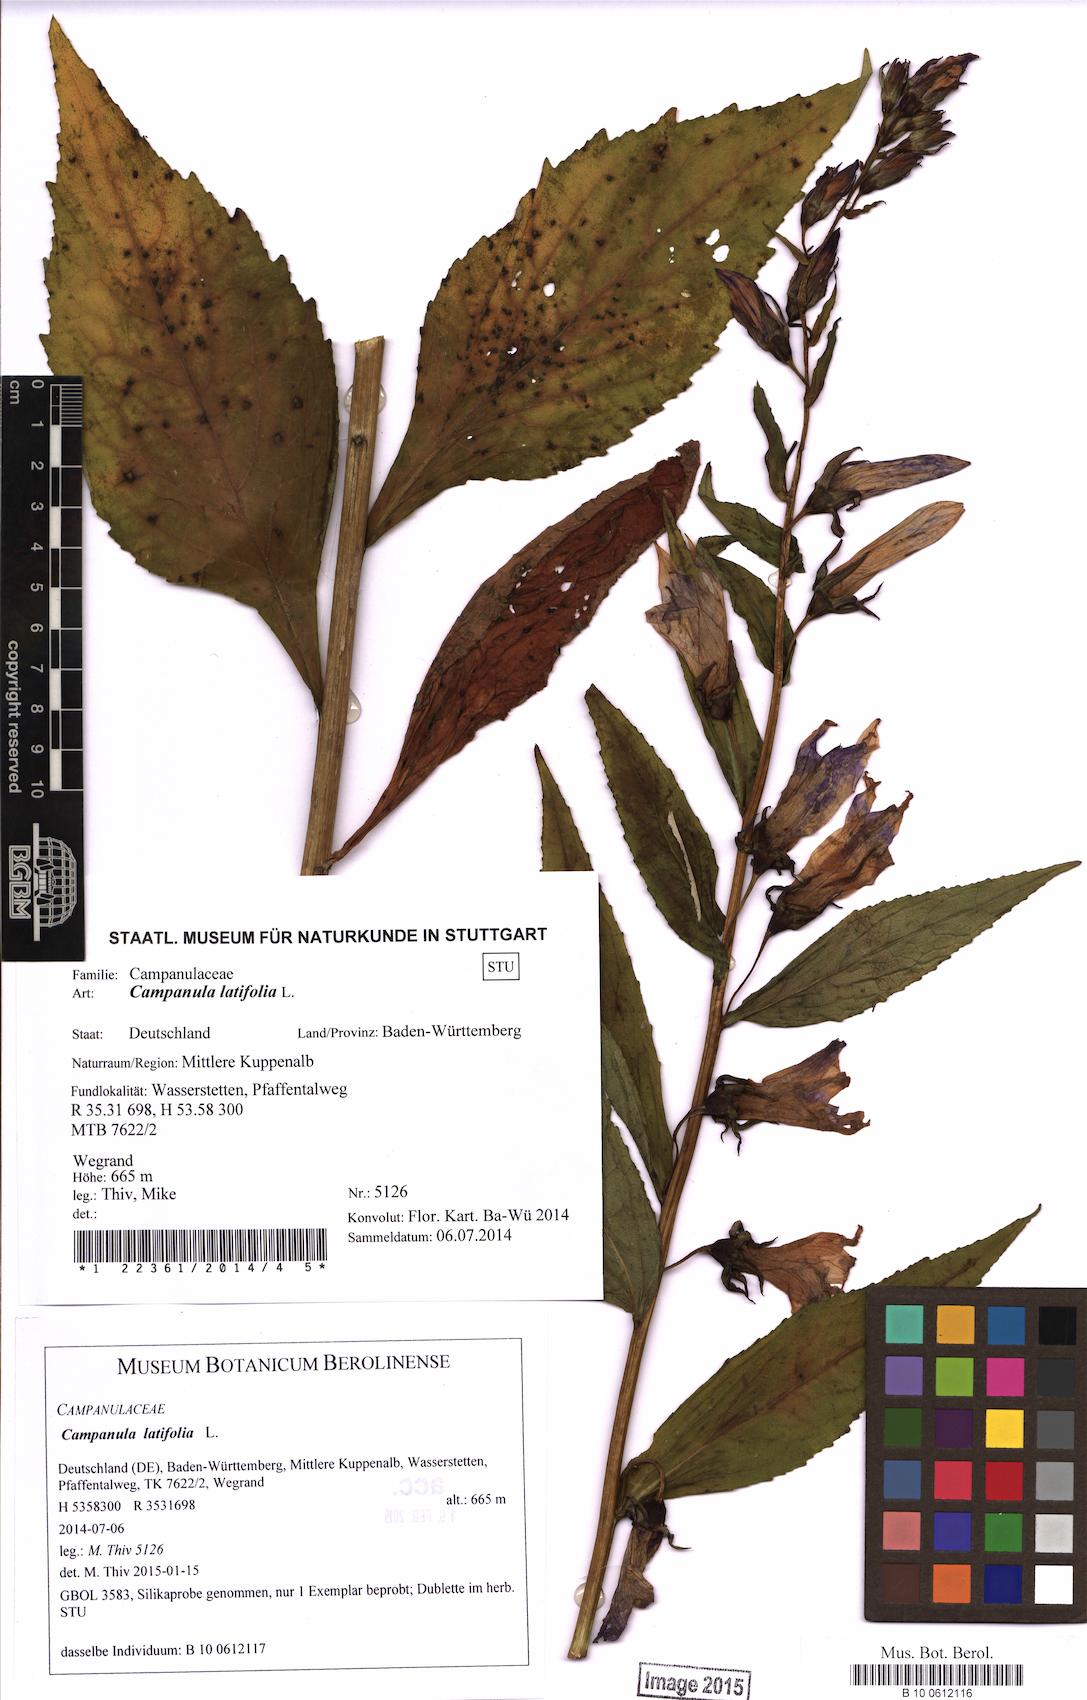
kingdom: Plantae
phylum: Tracheophyta
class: Magnoliopsida
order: Asterales
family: Campanulaceae
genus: Campanula
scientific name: Campanula latifolia
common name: Giant bellflower
